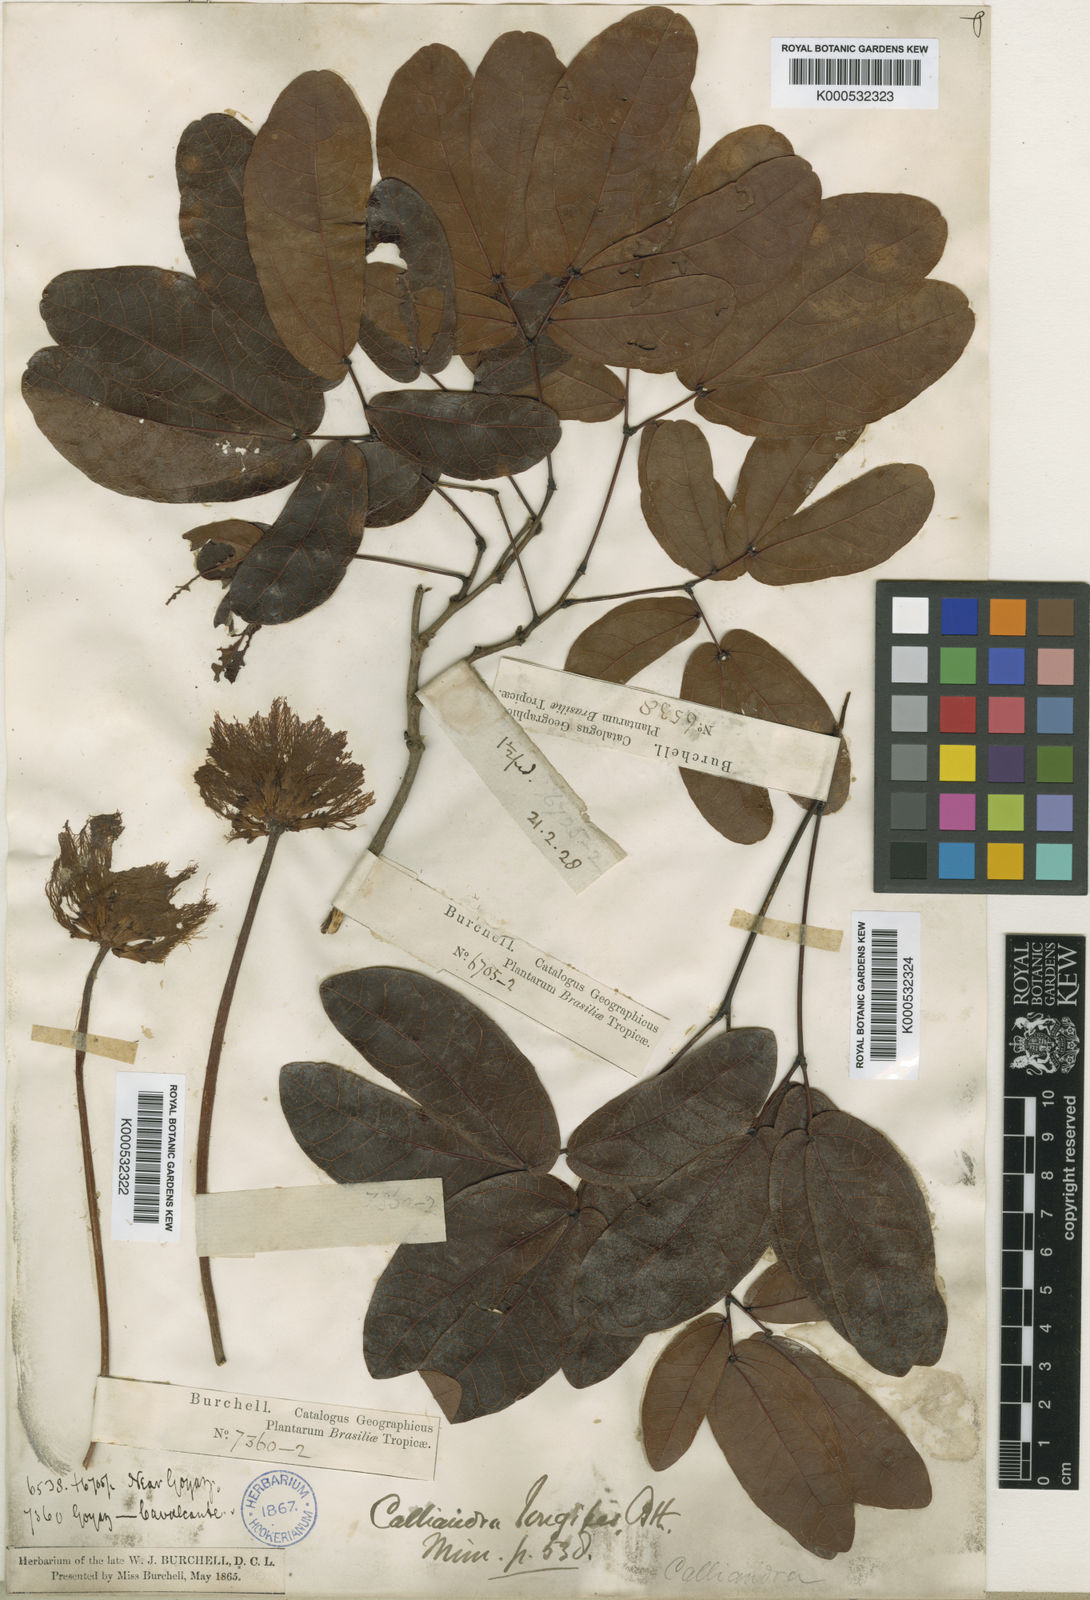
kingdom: Plantae
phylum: Tracheophyta
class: Magnoliopsida
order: Fabales
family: Fabaceae
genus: Calliandra
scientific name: Calliandra longipes
